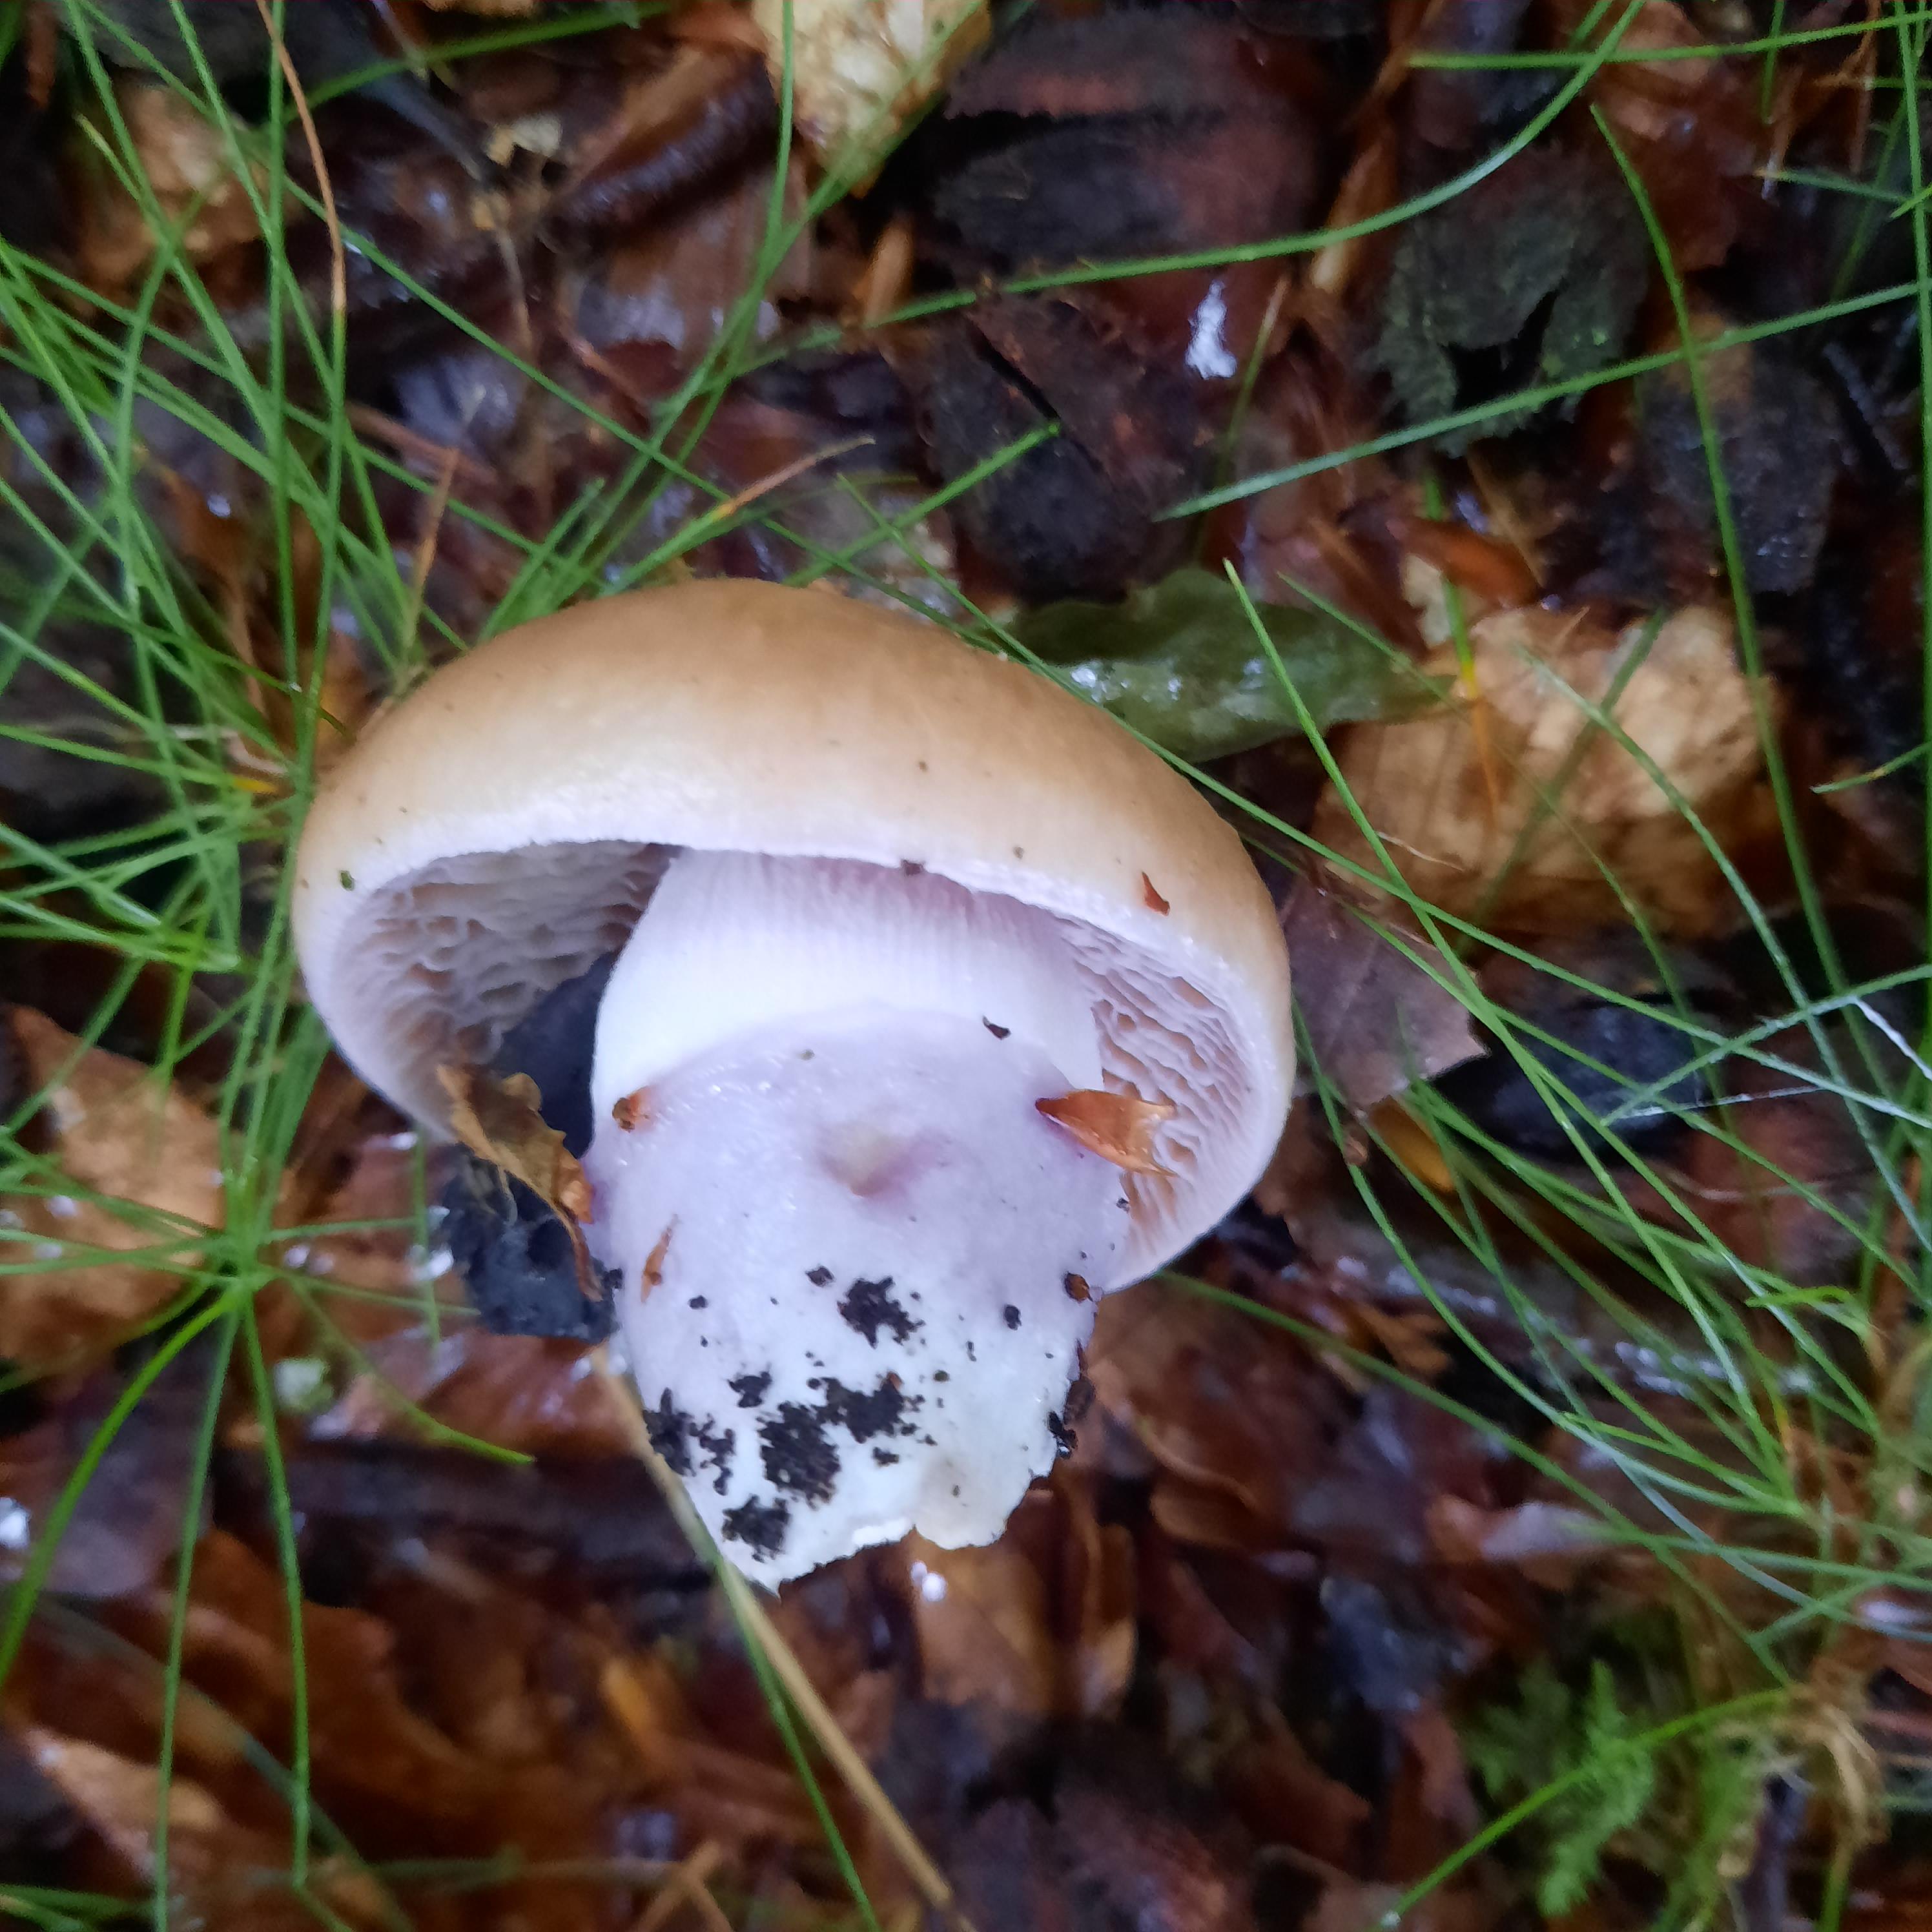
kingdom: Fungi
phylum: Basidiomycota
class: Agaricomycetes
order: Agaricales
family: Cortinariaceae
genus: Cortinarius
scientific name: Cortinarius
